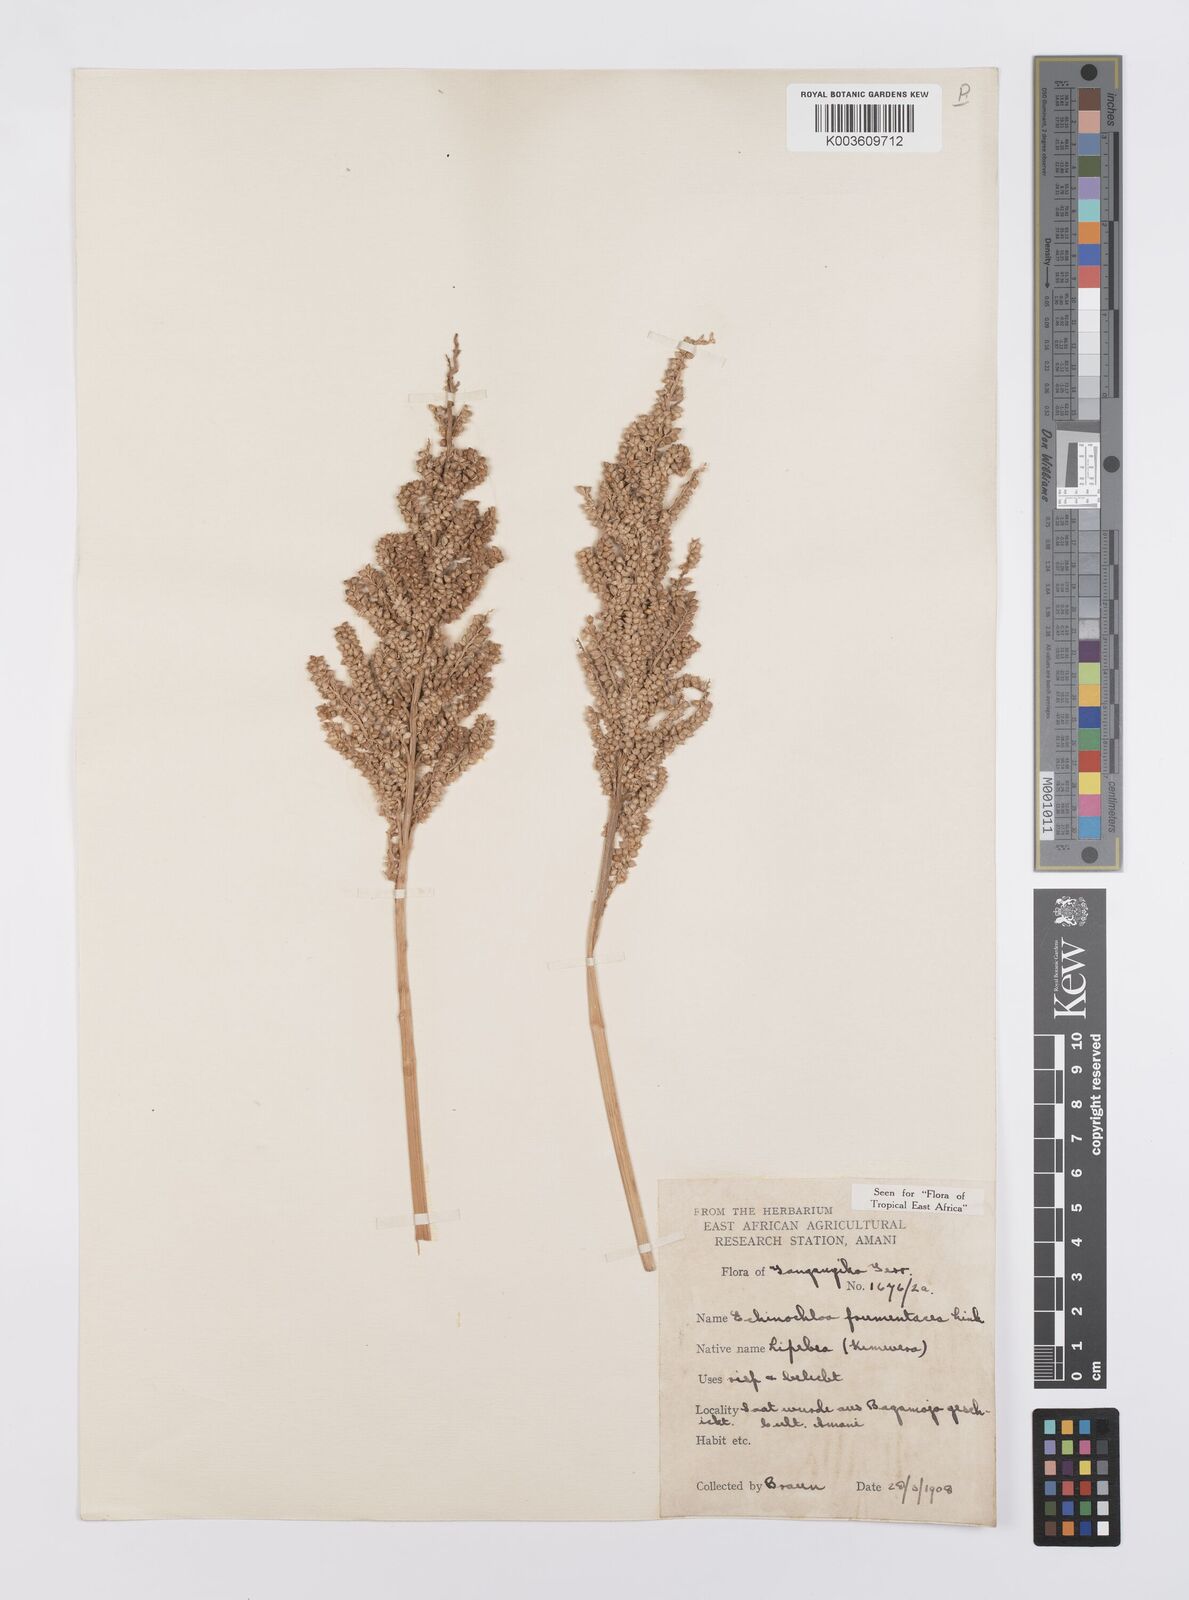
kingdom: Plantae
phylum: Tracheophyta
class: Liliopsida
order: Poales
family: Poaceae
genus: Echinochloa
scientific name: Echinochloa frumentacea
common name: Billion-dollar grass
